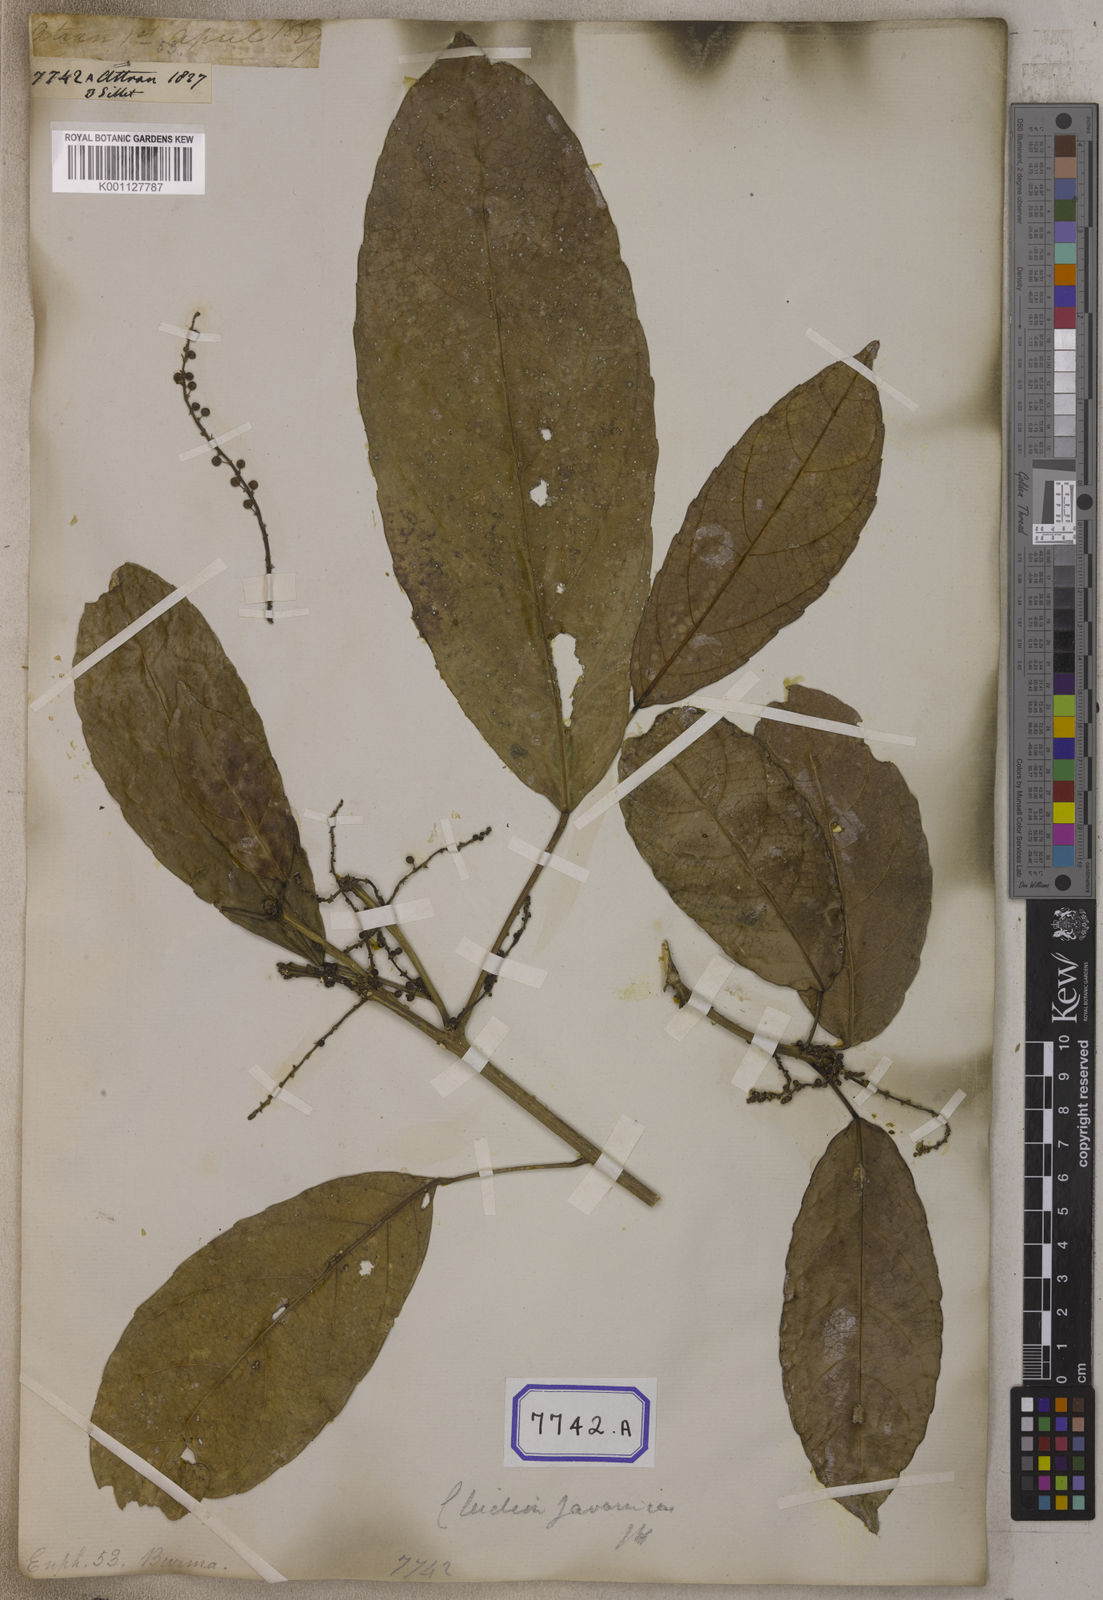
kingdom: Plantae
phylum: Tracheophyta
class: Magnoliopsida
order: Malpighiales
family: Euphorbiaceae
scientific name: Euphorbiaceae
